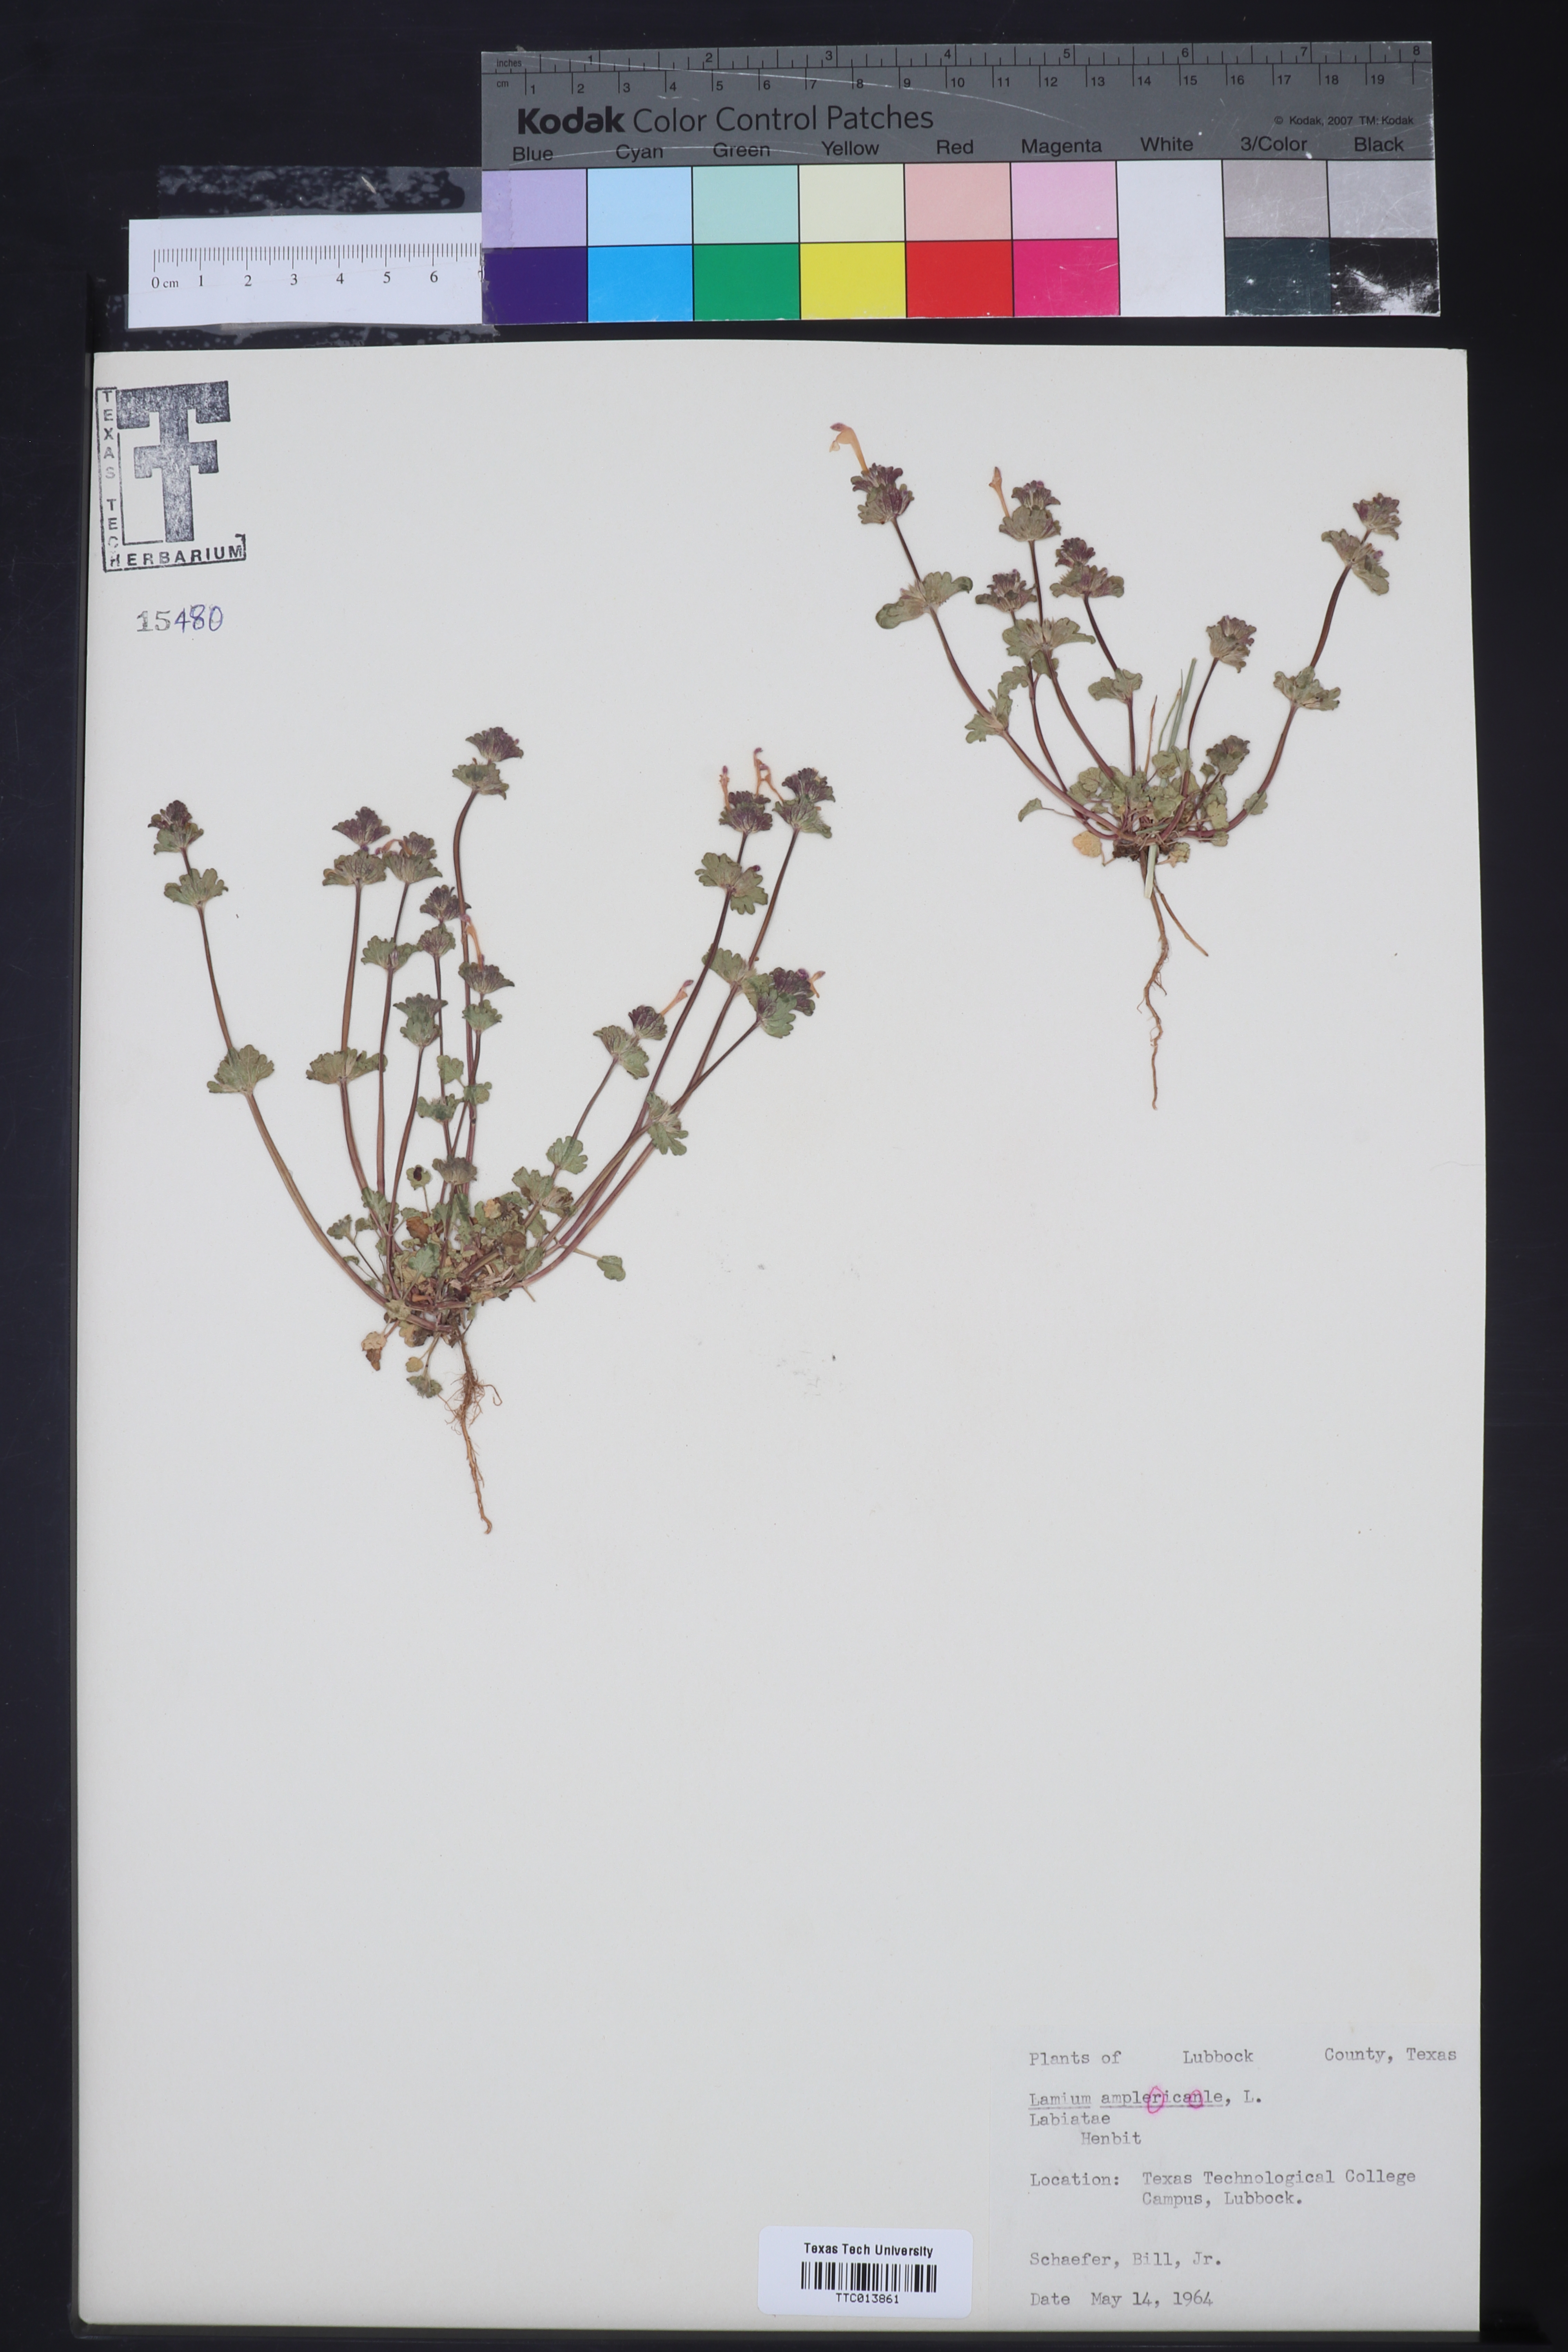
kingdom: Plantae
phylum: Tracheophyta
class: Magnoliopsida
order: Lamiales
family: Lamiaceae
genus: Lamium
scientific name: Lamium amplexicaule
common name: Henbit dead-nettle
